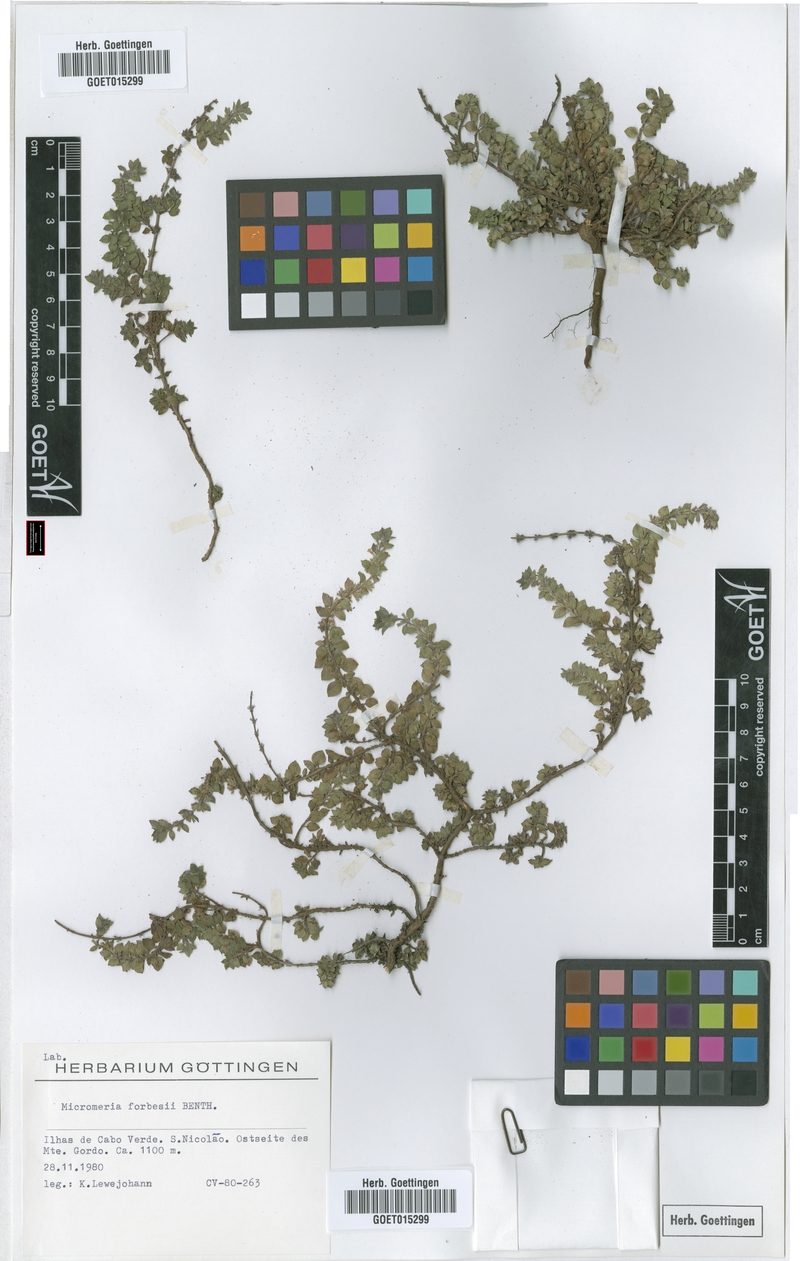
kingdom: Plantae
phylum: Tracheophyta
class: Magnoliopsida
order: Lamiales
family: Lamiaceae
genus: Micromeria
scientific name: Micromeria forbesii
